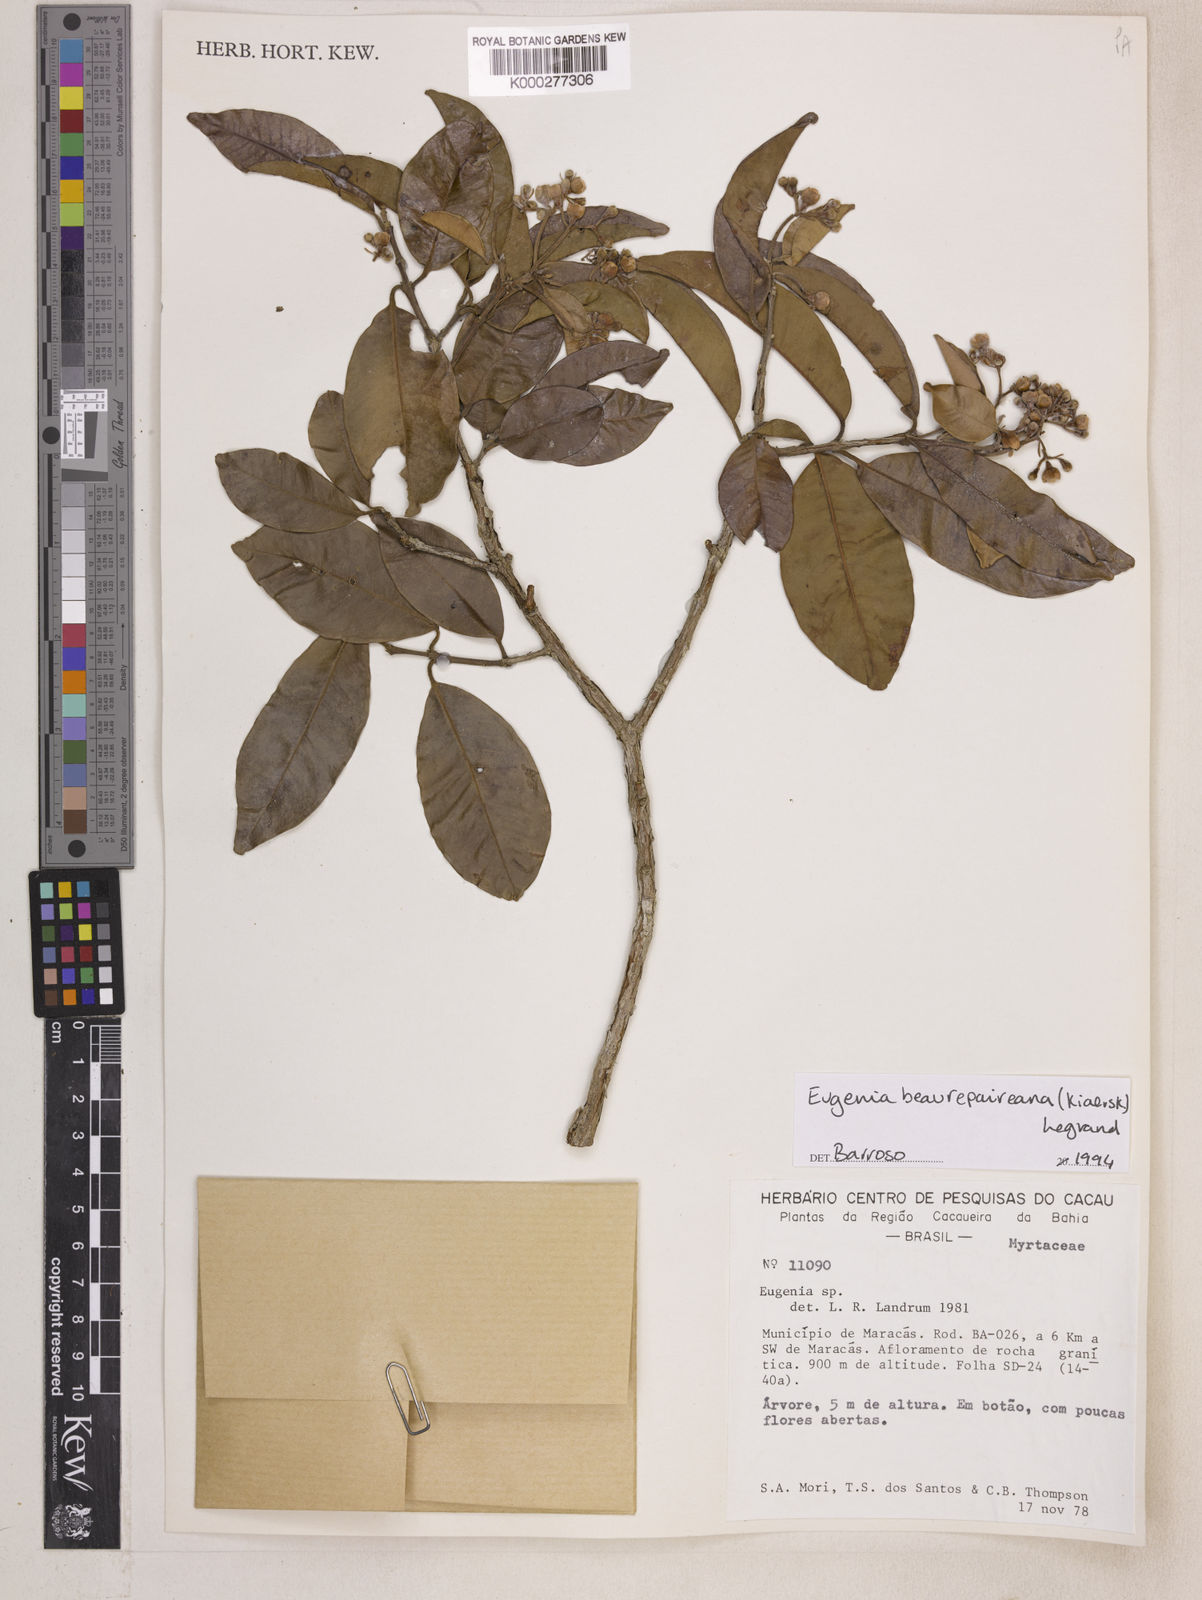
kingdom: Plantae
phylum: Tracheophyta
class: Magnoliopsida
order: Myrtales
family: Myrtaceae
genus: Eugenia
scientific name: Eugenia ternatifolia
